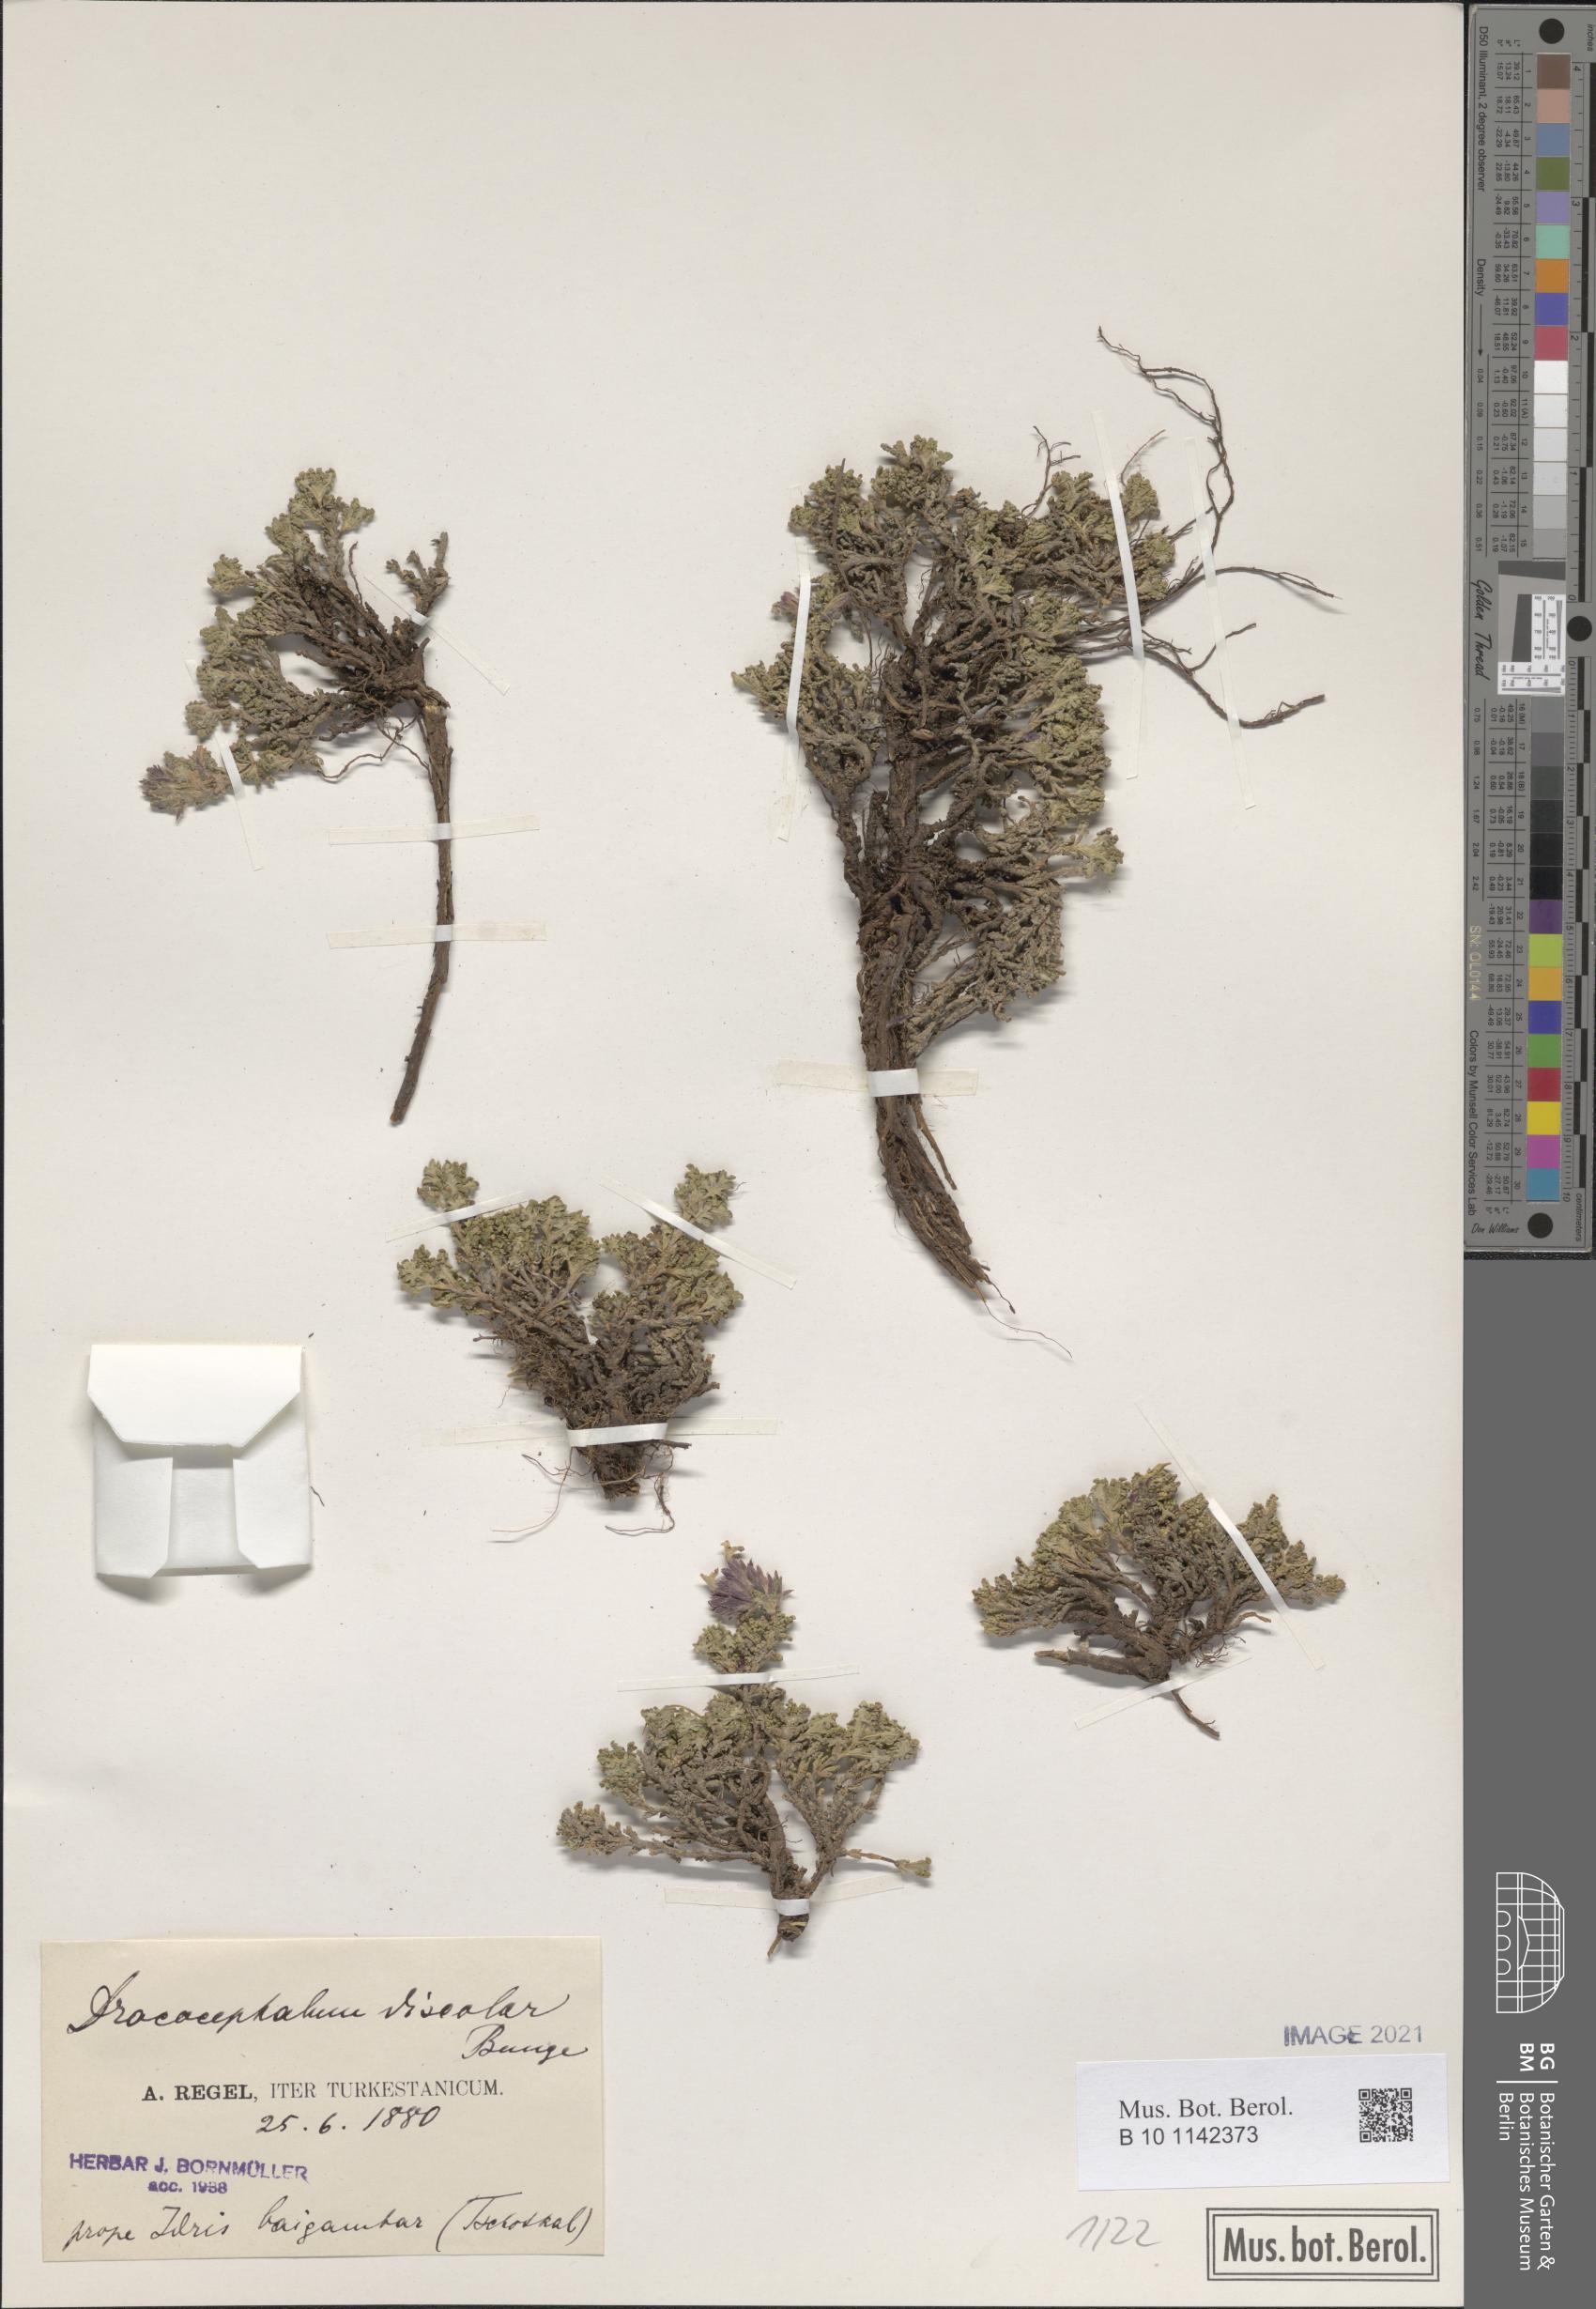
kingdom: Plantae
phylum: Tracheophyta
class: Magnoliopsida
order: Lamiales
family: Lamiaceae
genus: Dracocephalum
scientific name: Dracocephalum discolor
